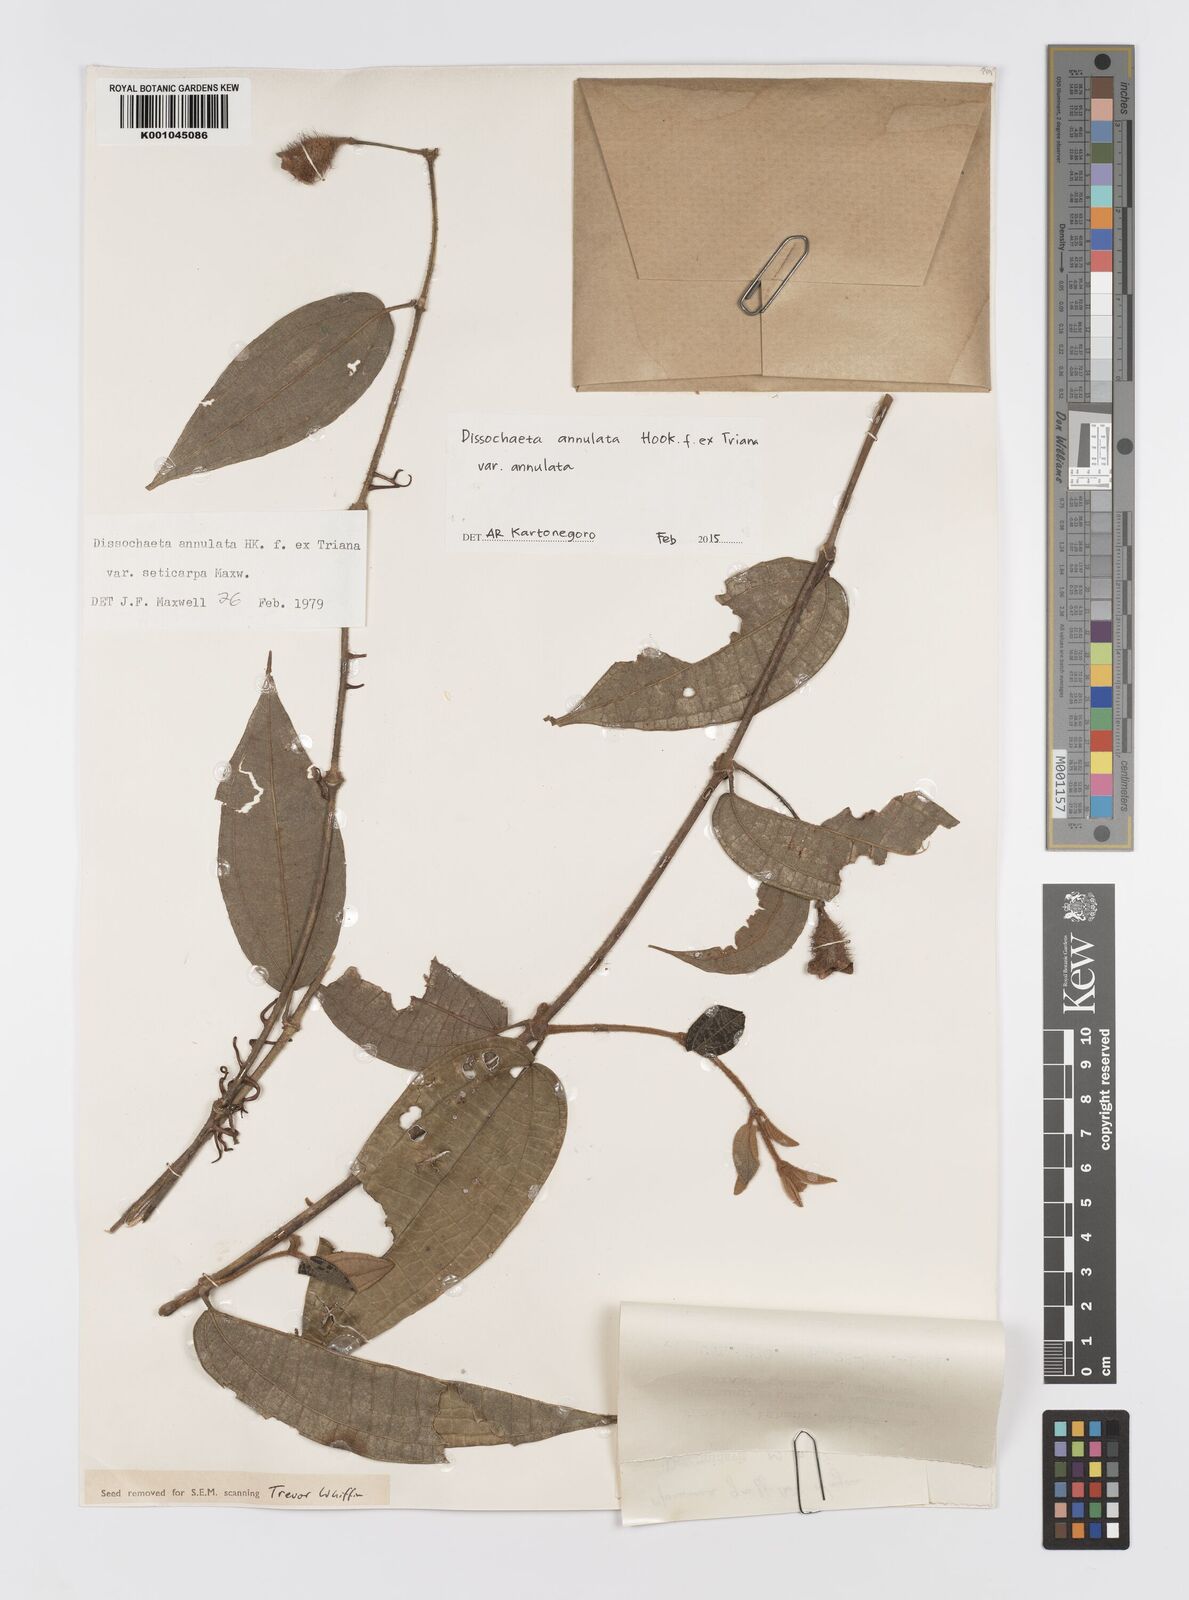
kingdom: Plantae
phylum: Tracheophyta
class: Magnoliopsida
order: Myrtales
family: Melastomataceae
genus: Dissochaeta
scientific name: Dissochaeta annulata
